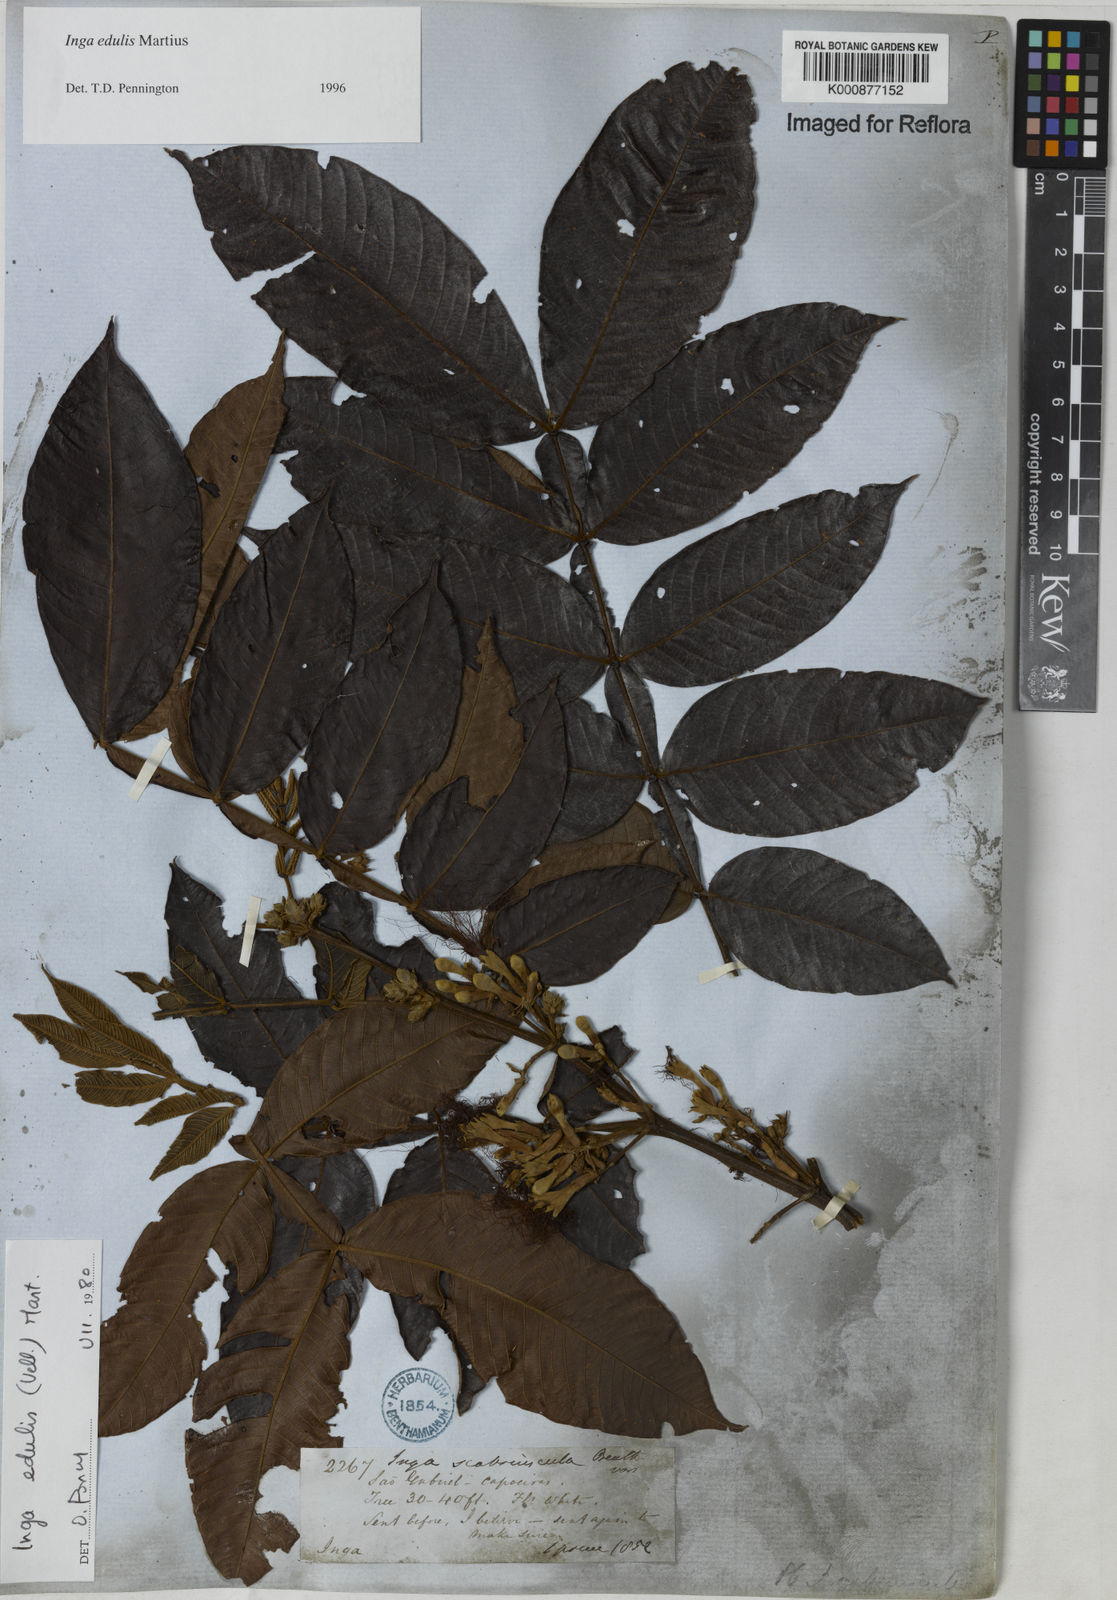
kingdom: Plantae
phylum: Tracheophyta
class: Magnoliopsida
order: Fabales
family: Fabaceae
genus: Inga
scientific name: Inga edulis
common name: Ice cream bean
